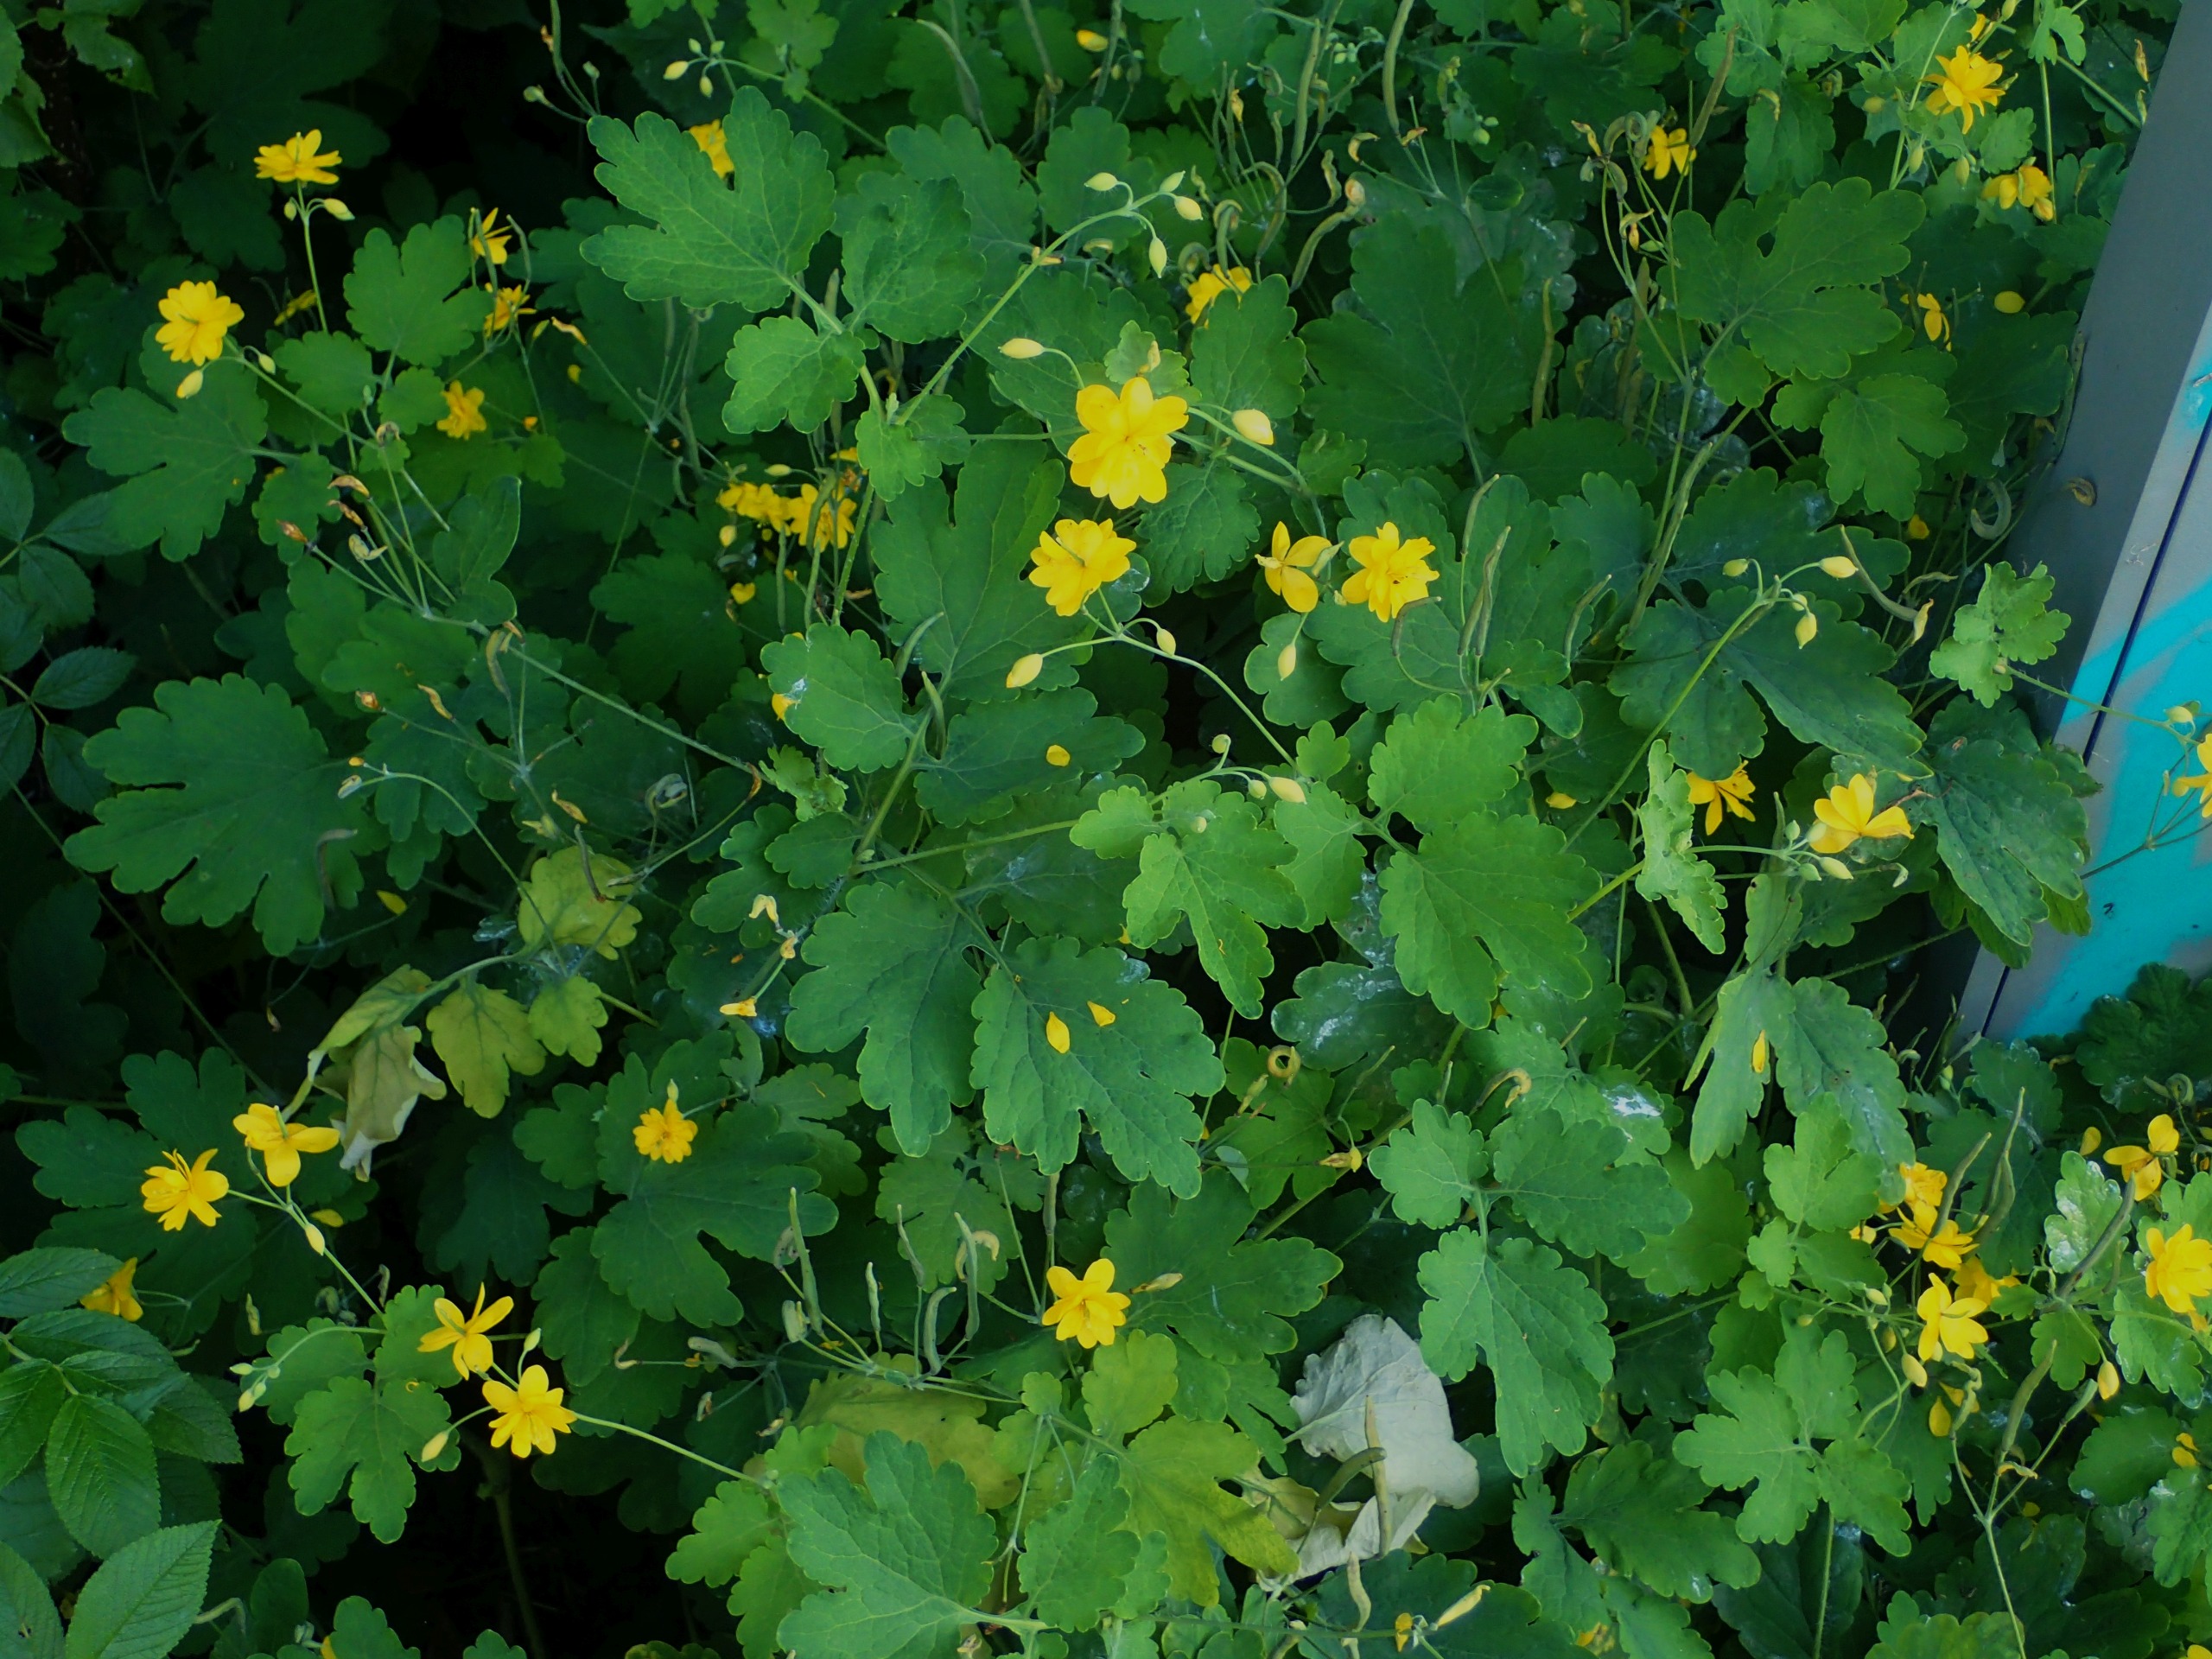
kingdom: Plantae
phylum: Tracheophyta
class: Magnoliopsida
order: Ranunculales
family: Papaveraceae
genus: Chelidonium
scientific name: Chelidonium majus
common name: Svaleurt
